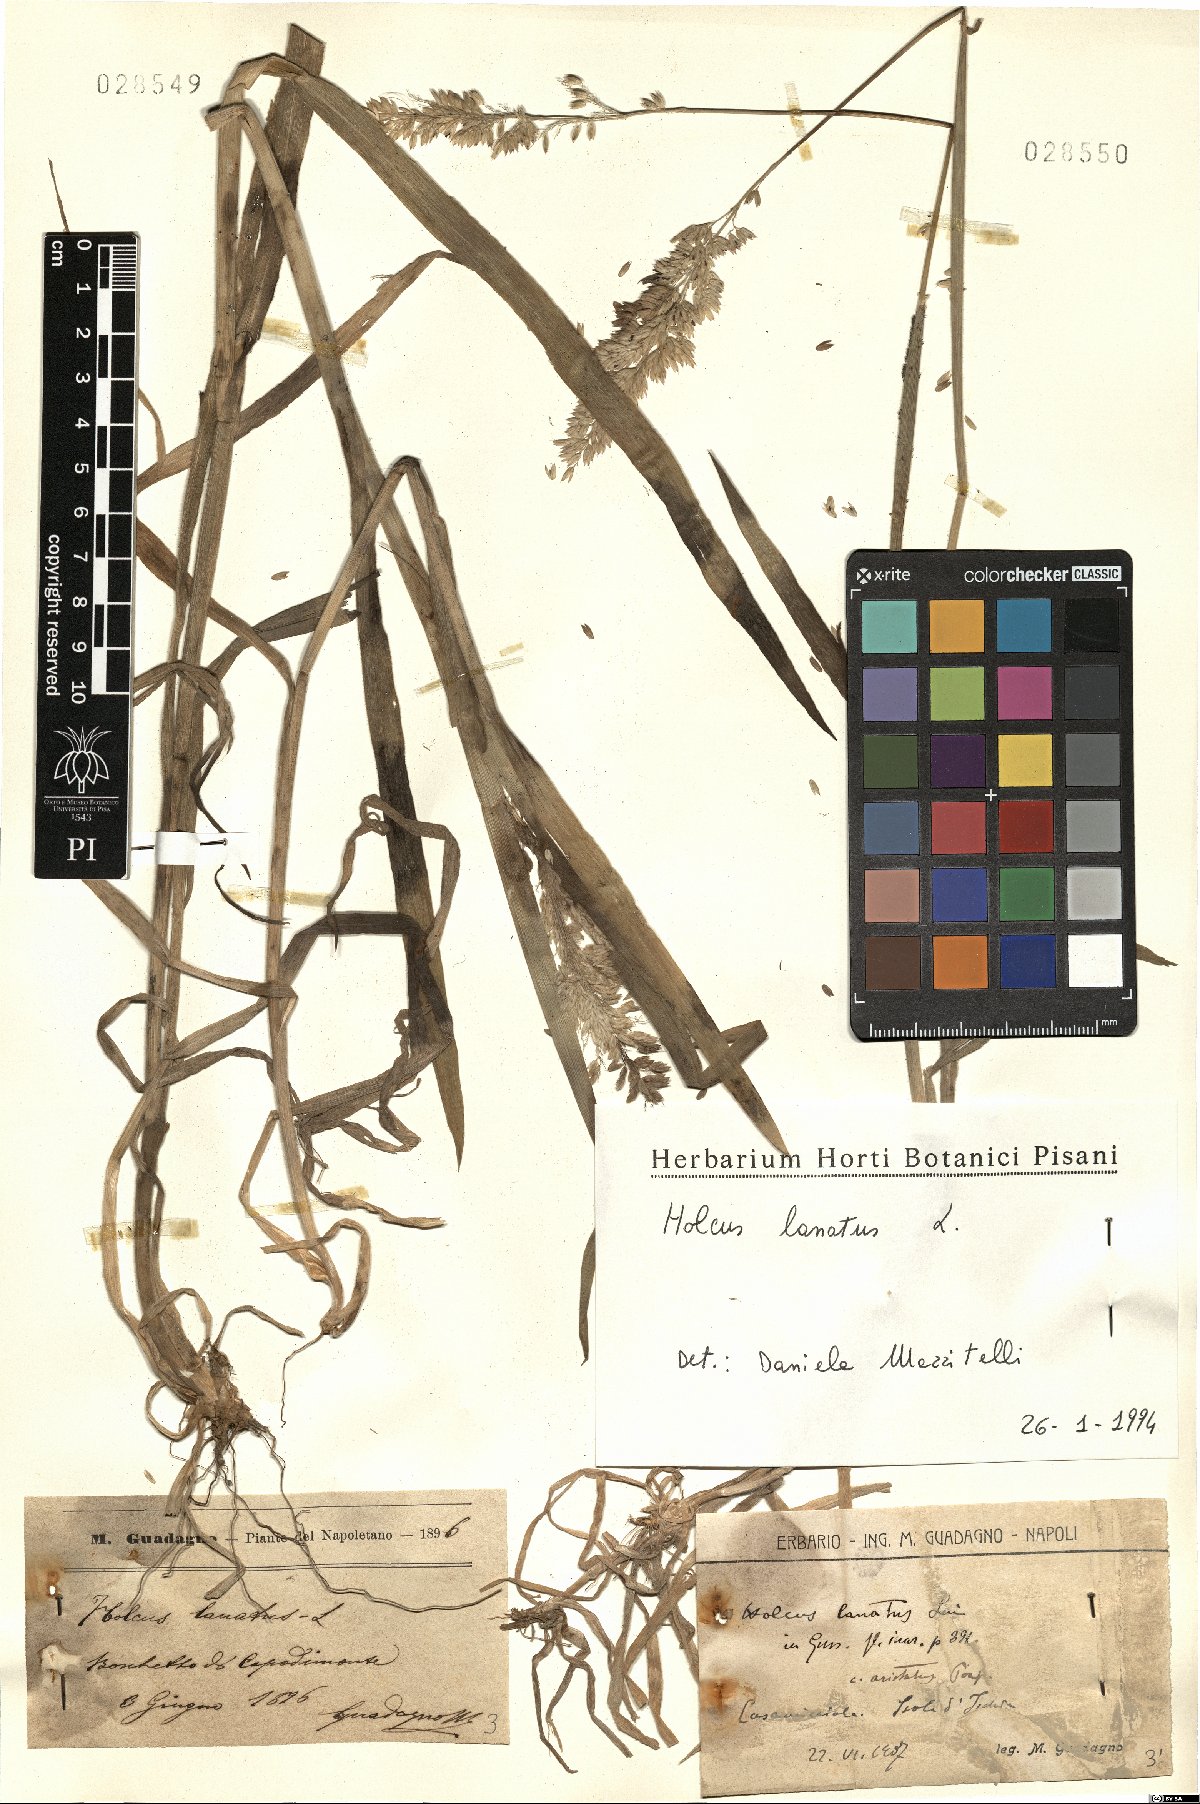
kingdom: Plantae
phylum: Tracheophyta
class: Liliopsida
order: Poales
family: Poaceae
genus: Holcus
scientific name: Holcus lanatus
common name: Yorkshire-fog
